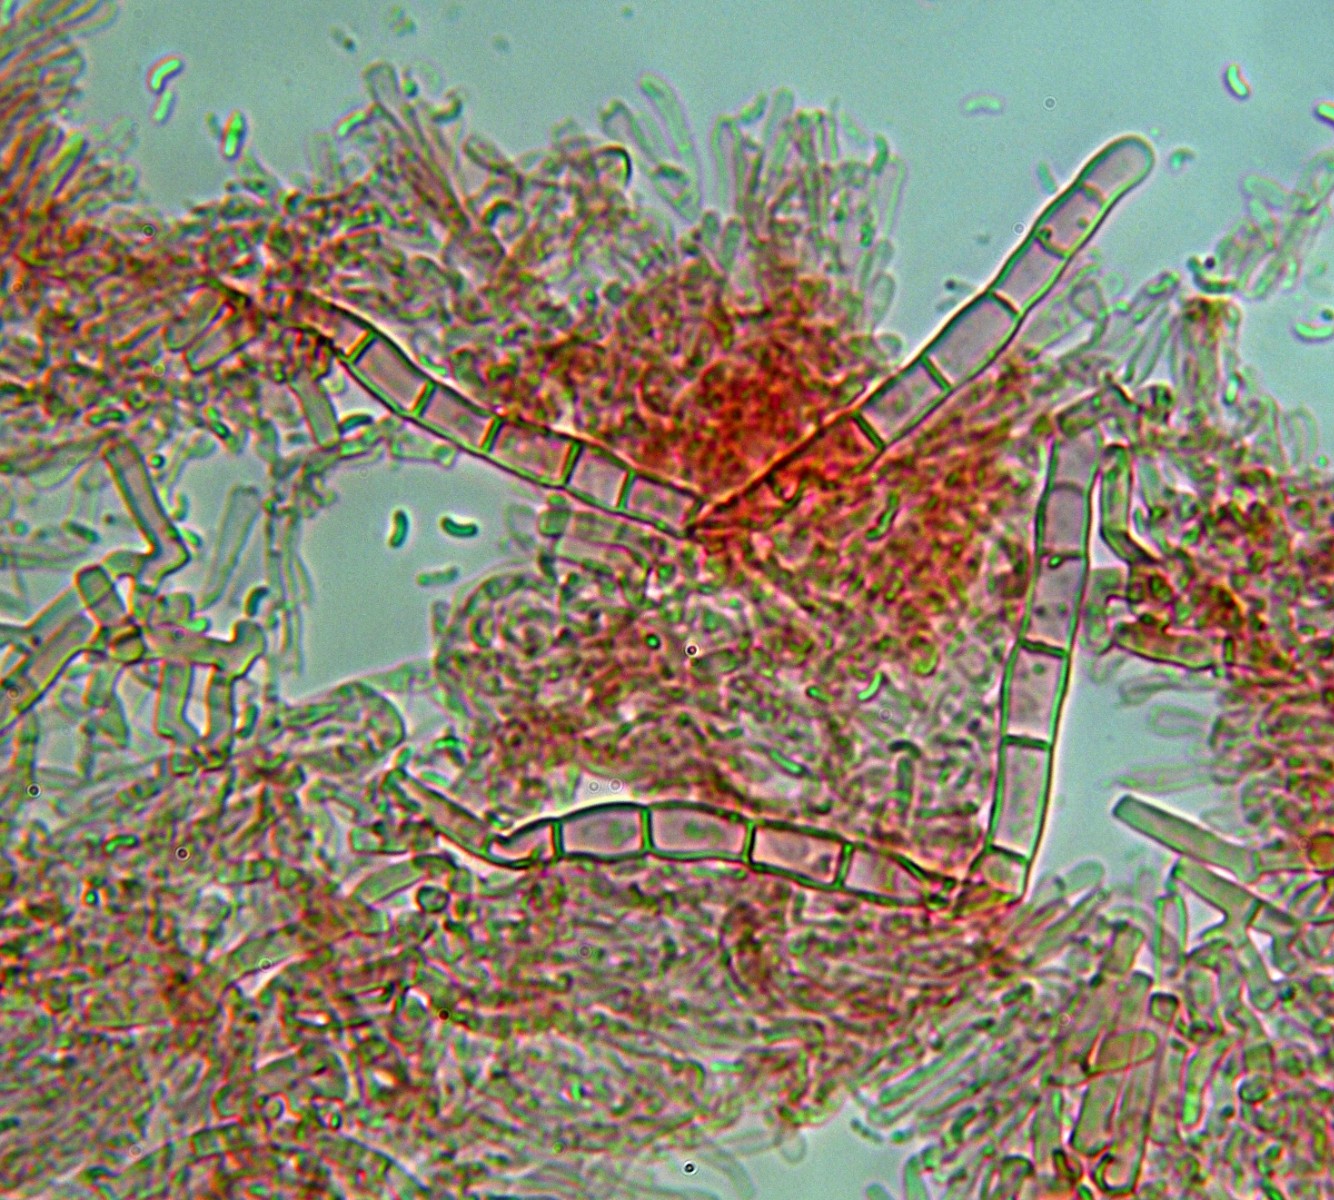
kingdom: Fungi
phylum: Basidiomycota
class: Agaricomycetes
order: Hymenochaetales
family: Rickenellaceae
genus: Odonticium
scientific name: Odonticium septocystidia
